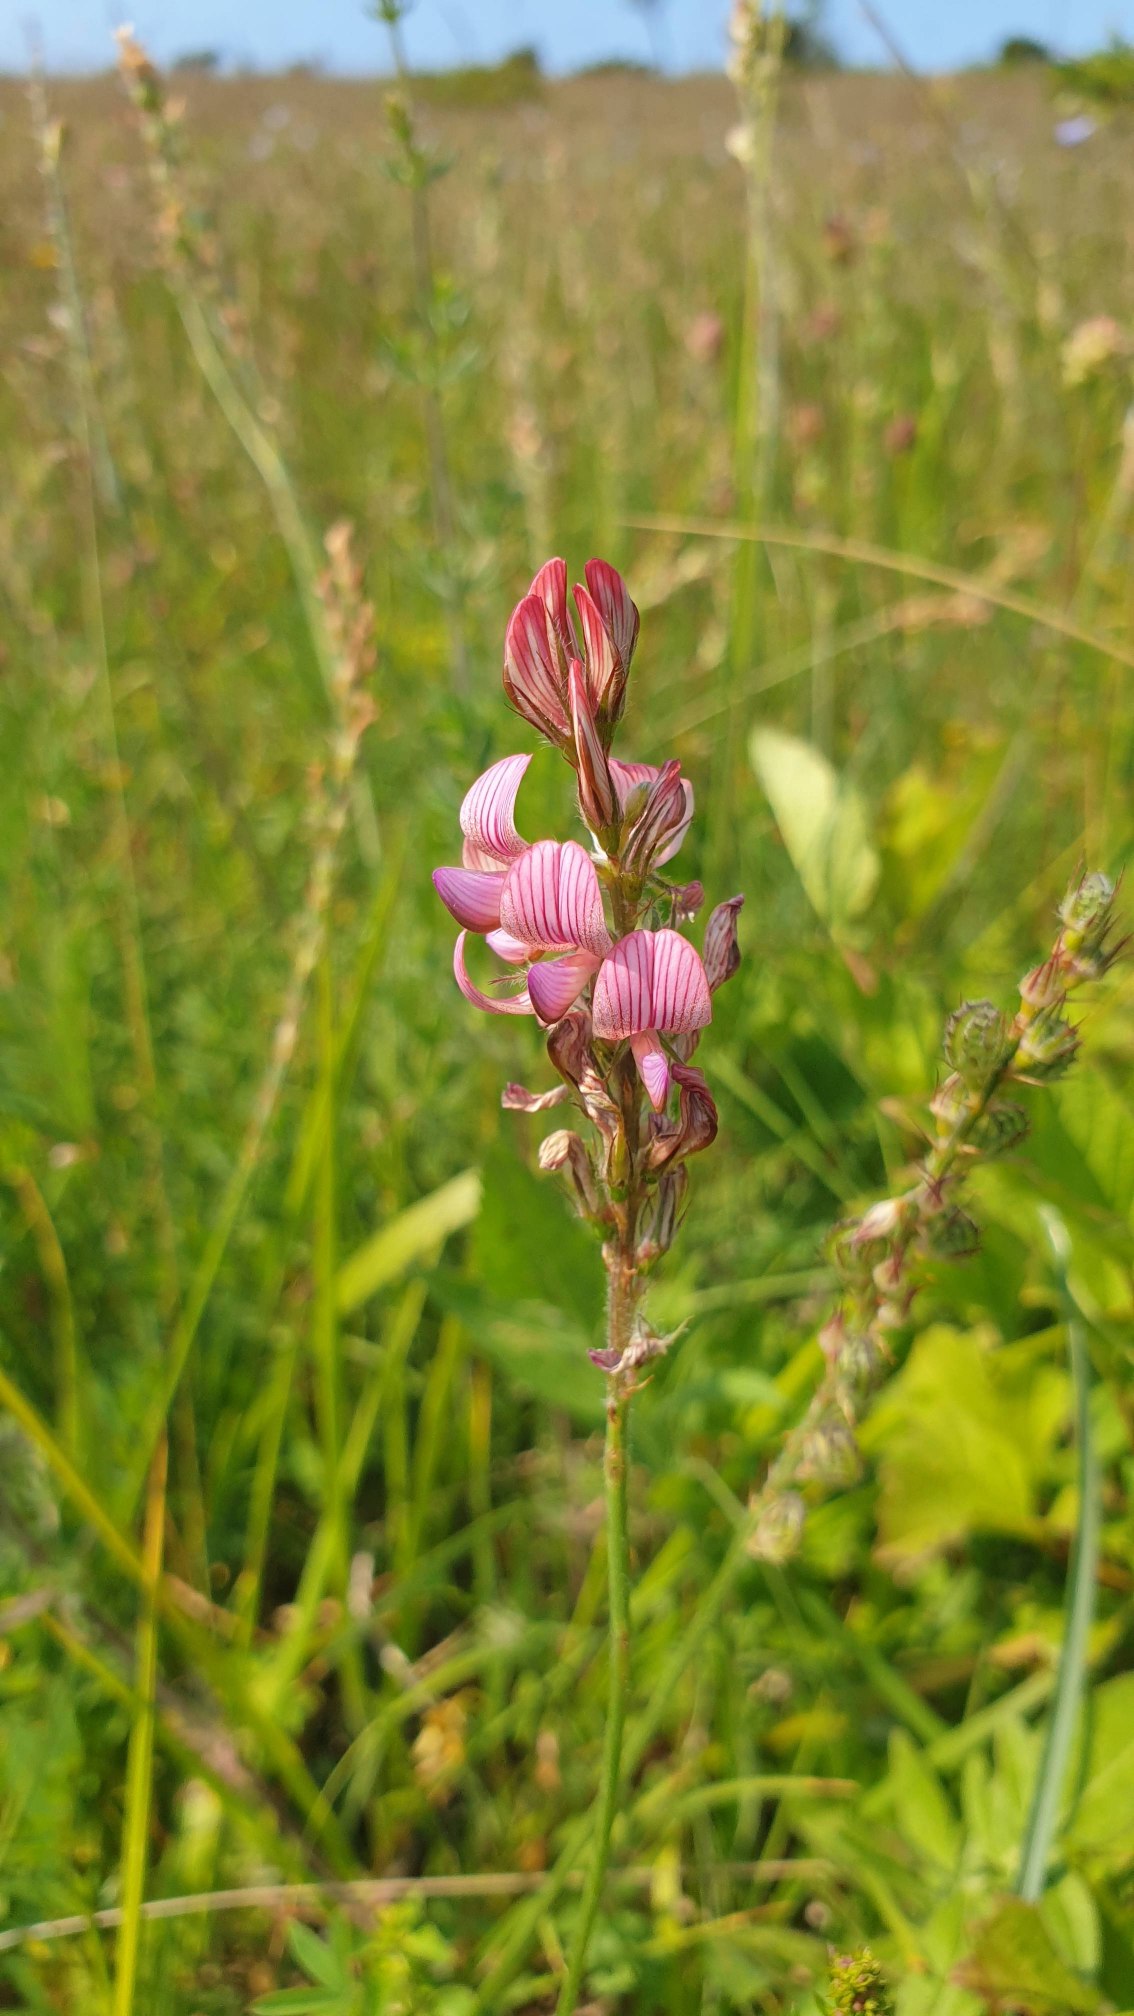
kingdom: Plantae
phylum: Tracheophyta
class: Magnoliopsida
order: Fabales
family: Fabaceae
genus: Onobrychis
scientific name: Onobrychis viciifolia
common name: Esparsette
